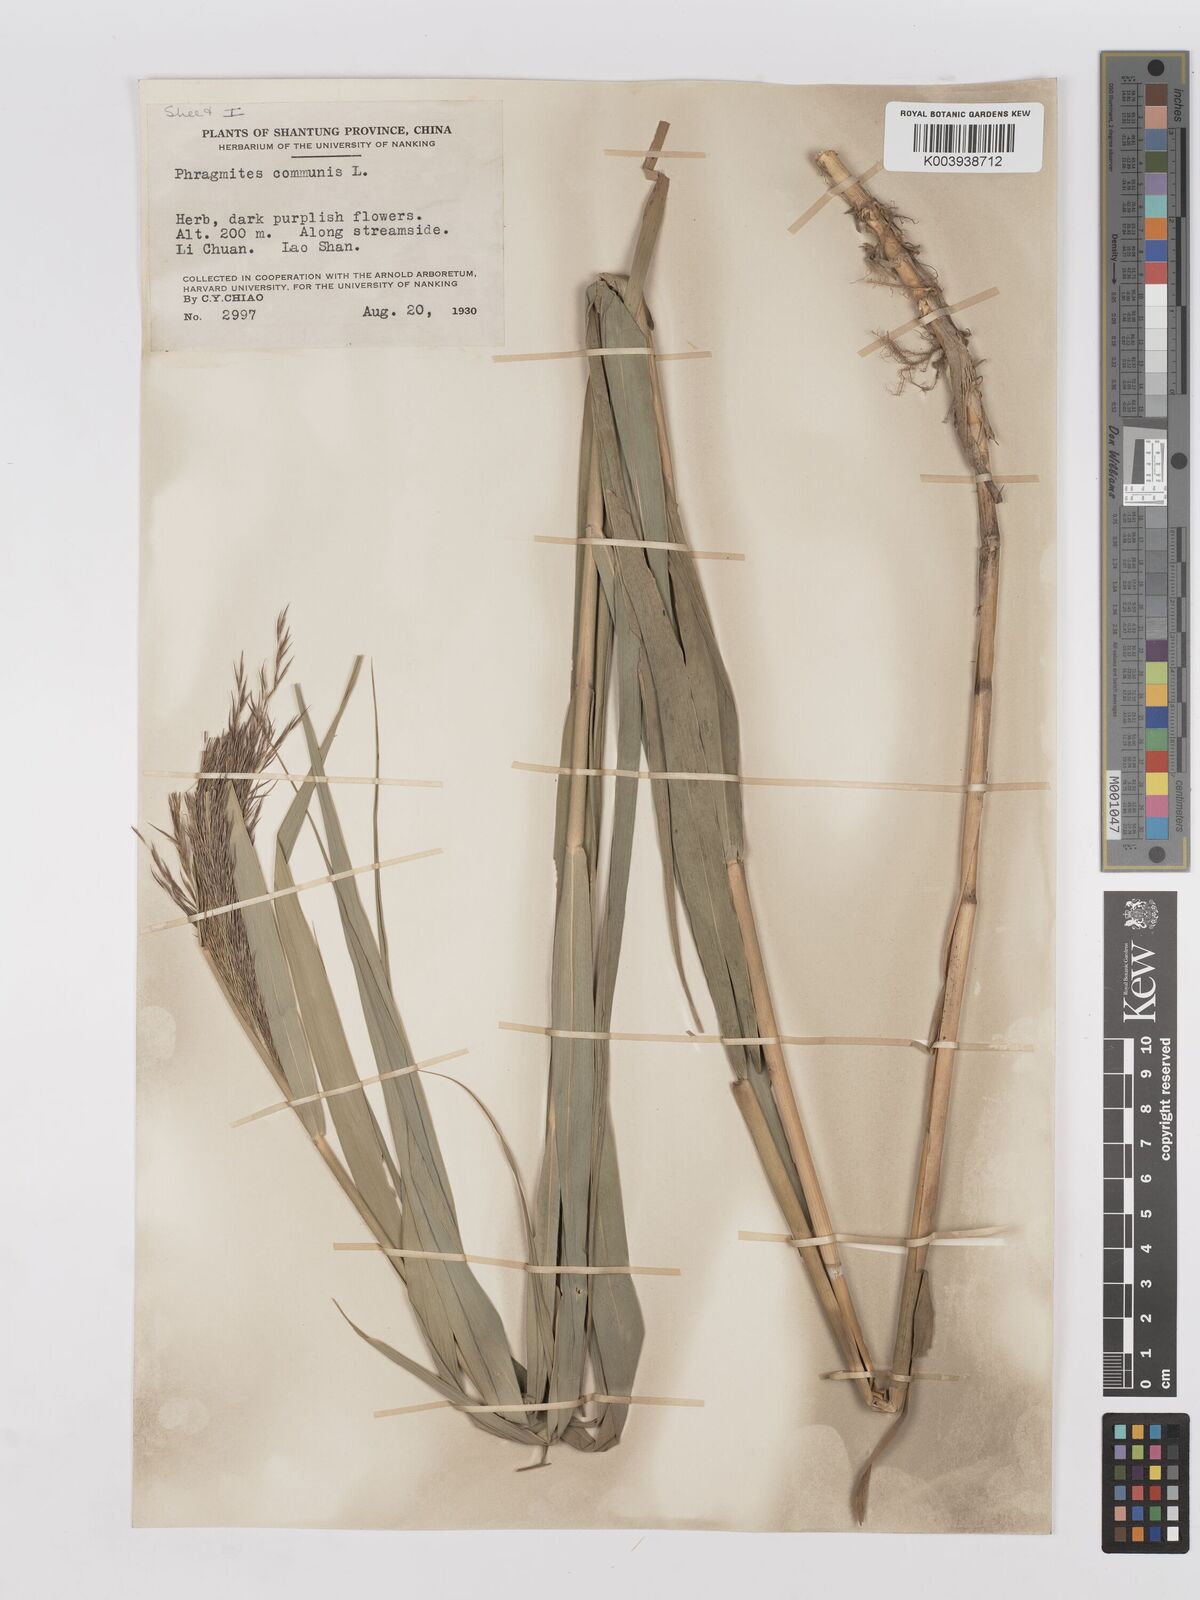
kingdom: Plantae
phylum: Tracheophyta
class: Liliopsida
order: Poales
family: Poaceae
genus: Phragmites
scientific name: Phragmites australis
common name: Common reed
